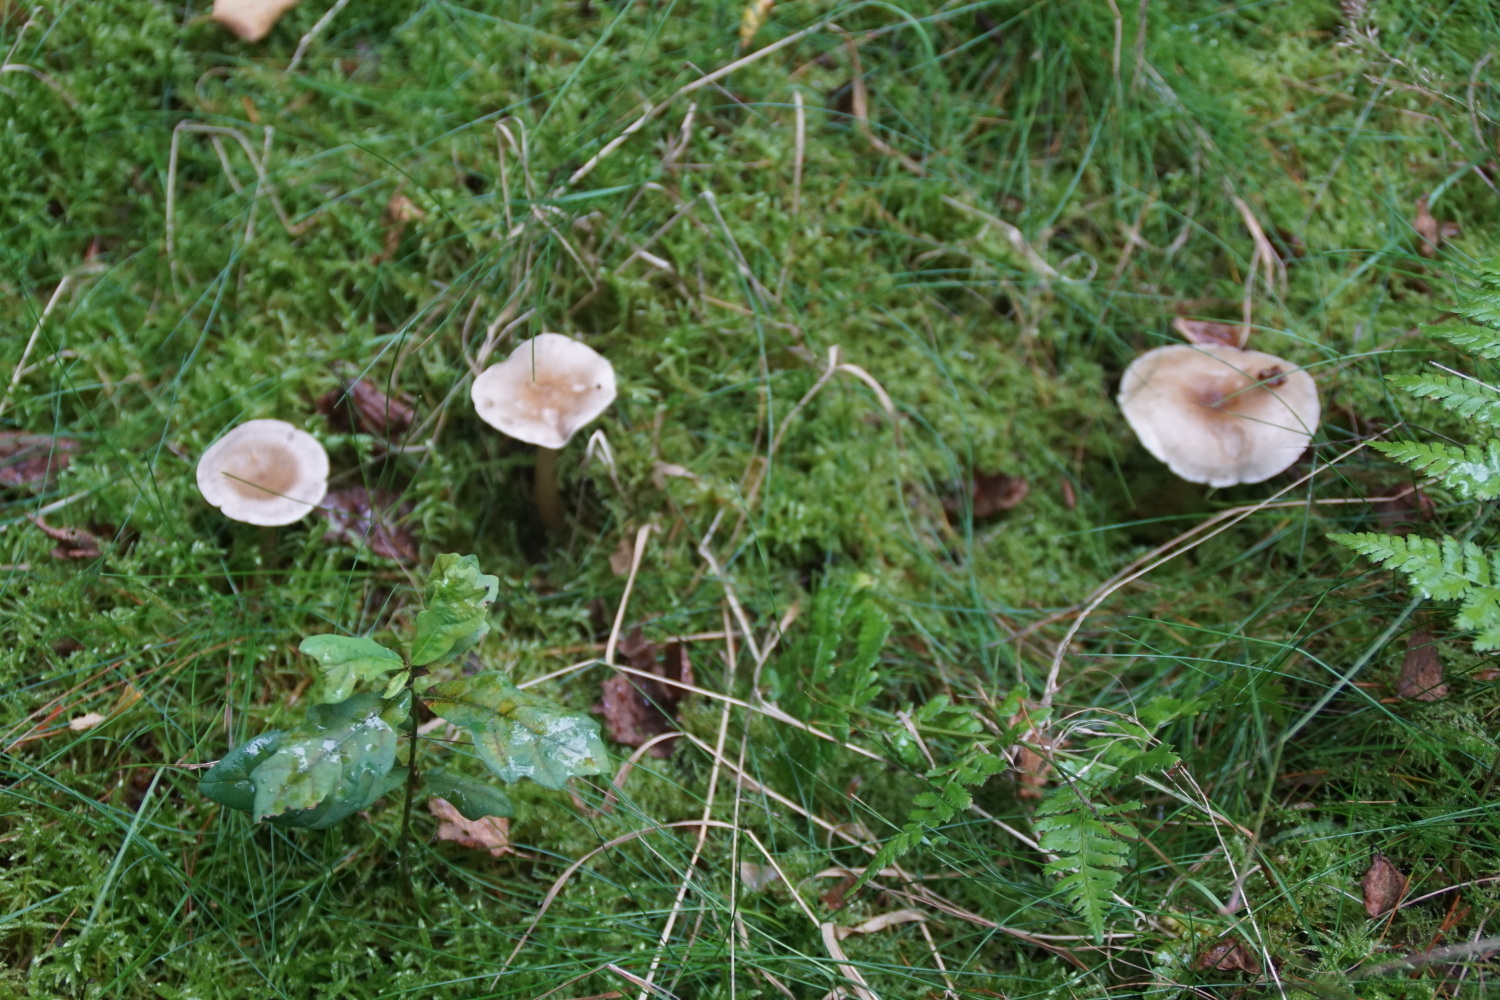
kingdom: Fungi
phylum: Basidiomycota
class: Agaricomycetes
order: Agaricales
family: Hygrophoraceae
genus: Ampulloclitocybe
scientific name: Ampulloclitocybe clavipes
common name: køllefod
